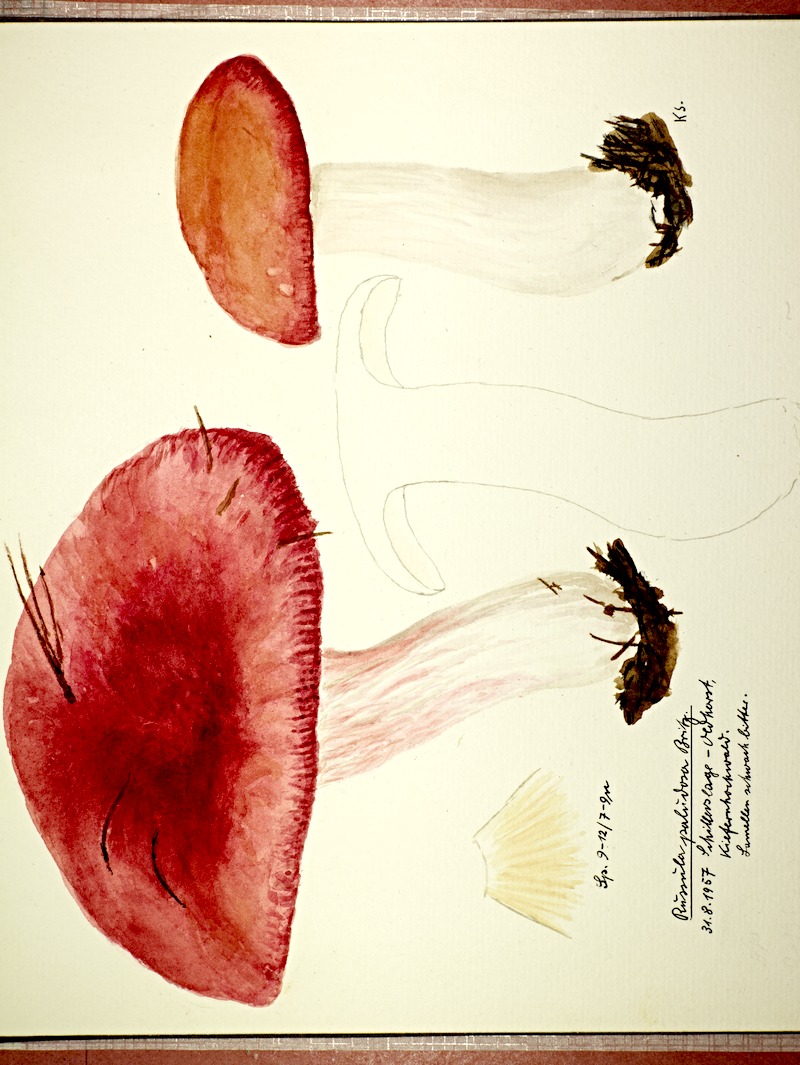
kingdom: Fungi
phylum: Basidiomycota
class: Agaricomycetes
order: Russulales
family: Russulaceae
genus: Russula
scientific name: Russula paludosa
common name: Hintapink
